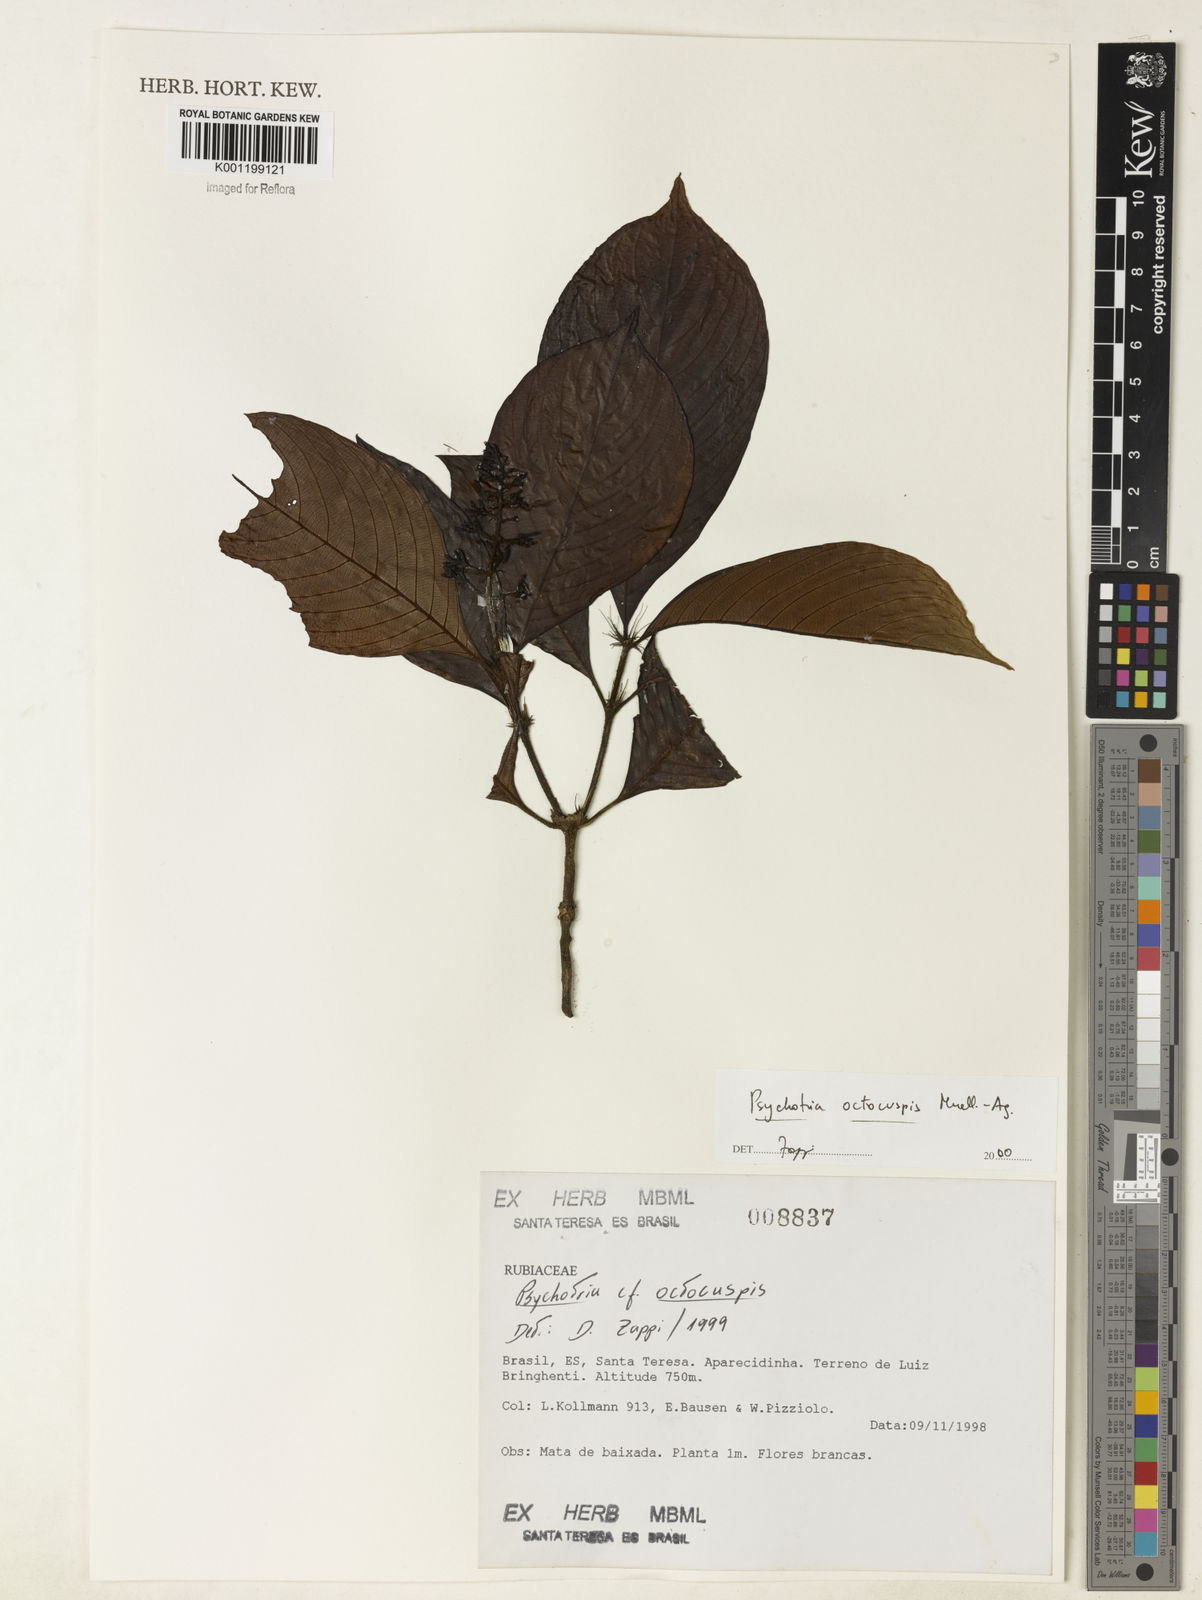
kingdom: Plantae
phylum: Tracheophyta
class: Magnoliopsida
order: Gentianales
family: Rubiaceae
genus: Psychotria
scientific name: Psychotria
